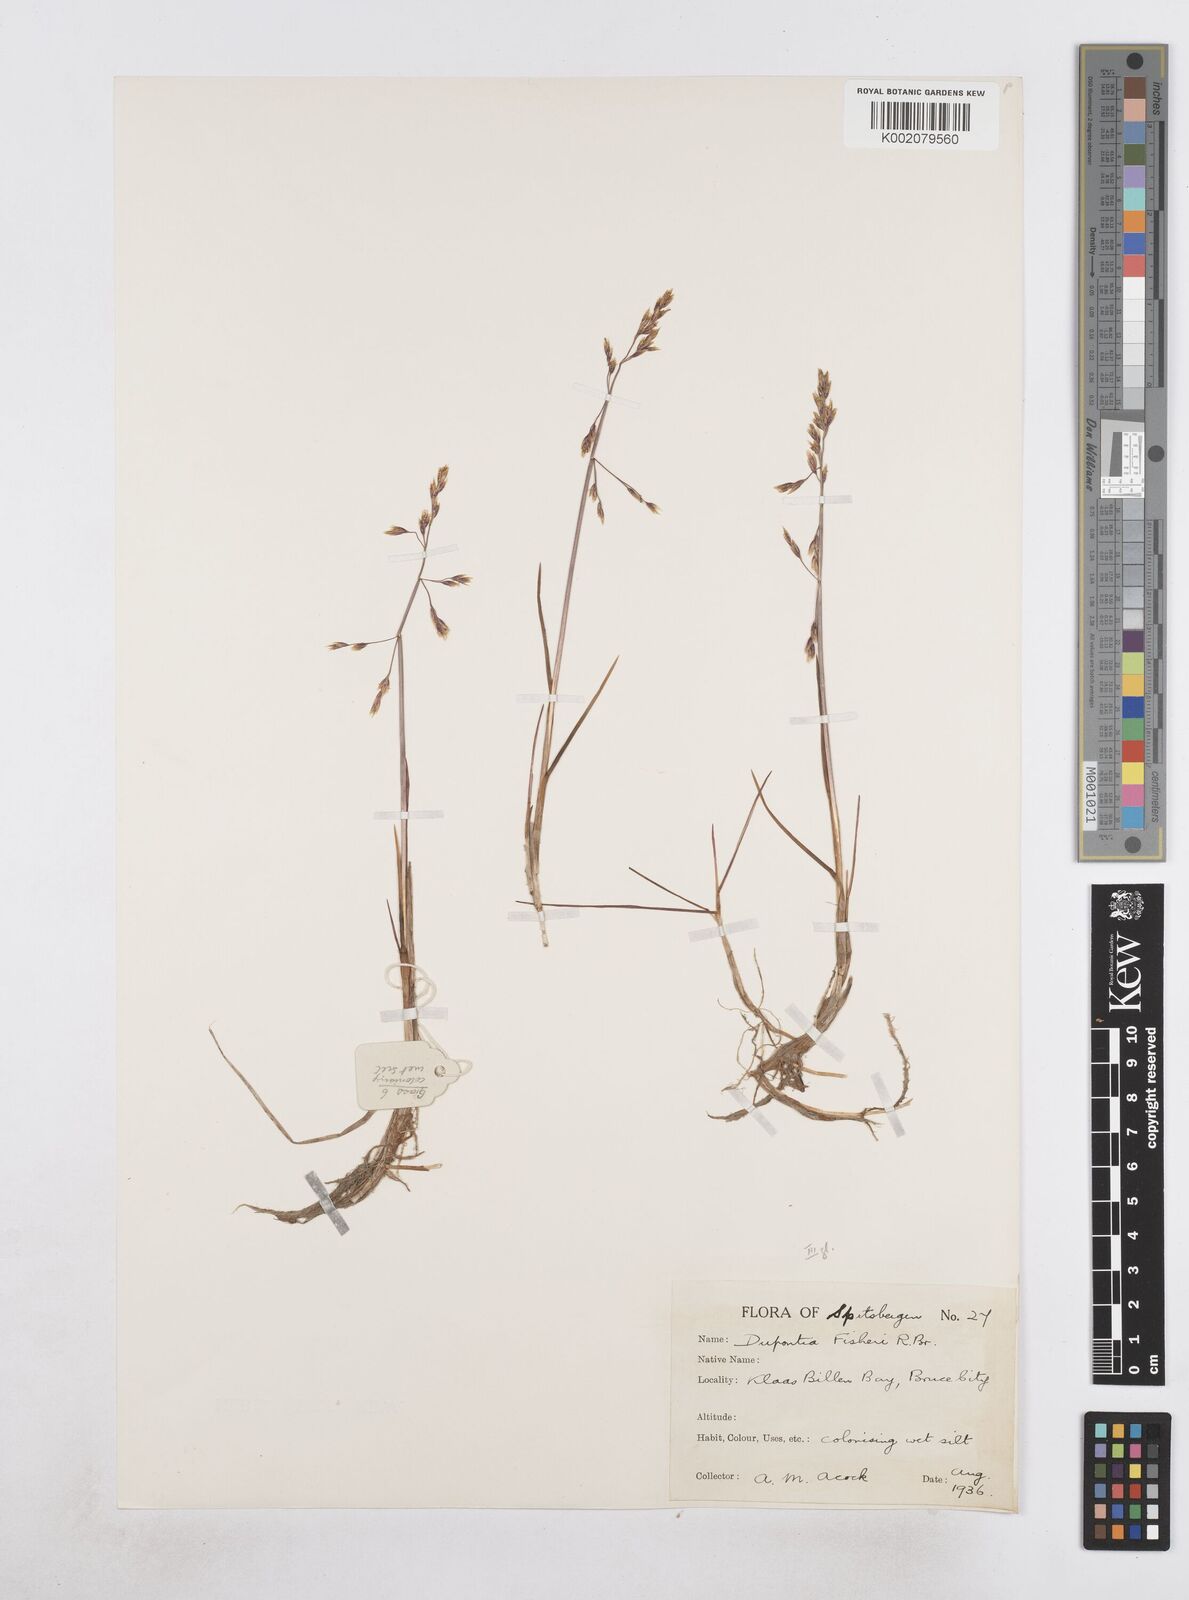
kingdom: Plantae
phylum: Tracheophyta
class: Liliopsida
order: Poales
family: Poaceae
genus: Dupontia
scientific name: Dupontia fisheri
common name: Tundra grass
